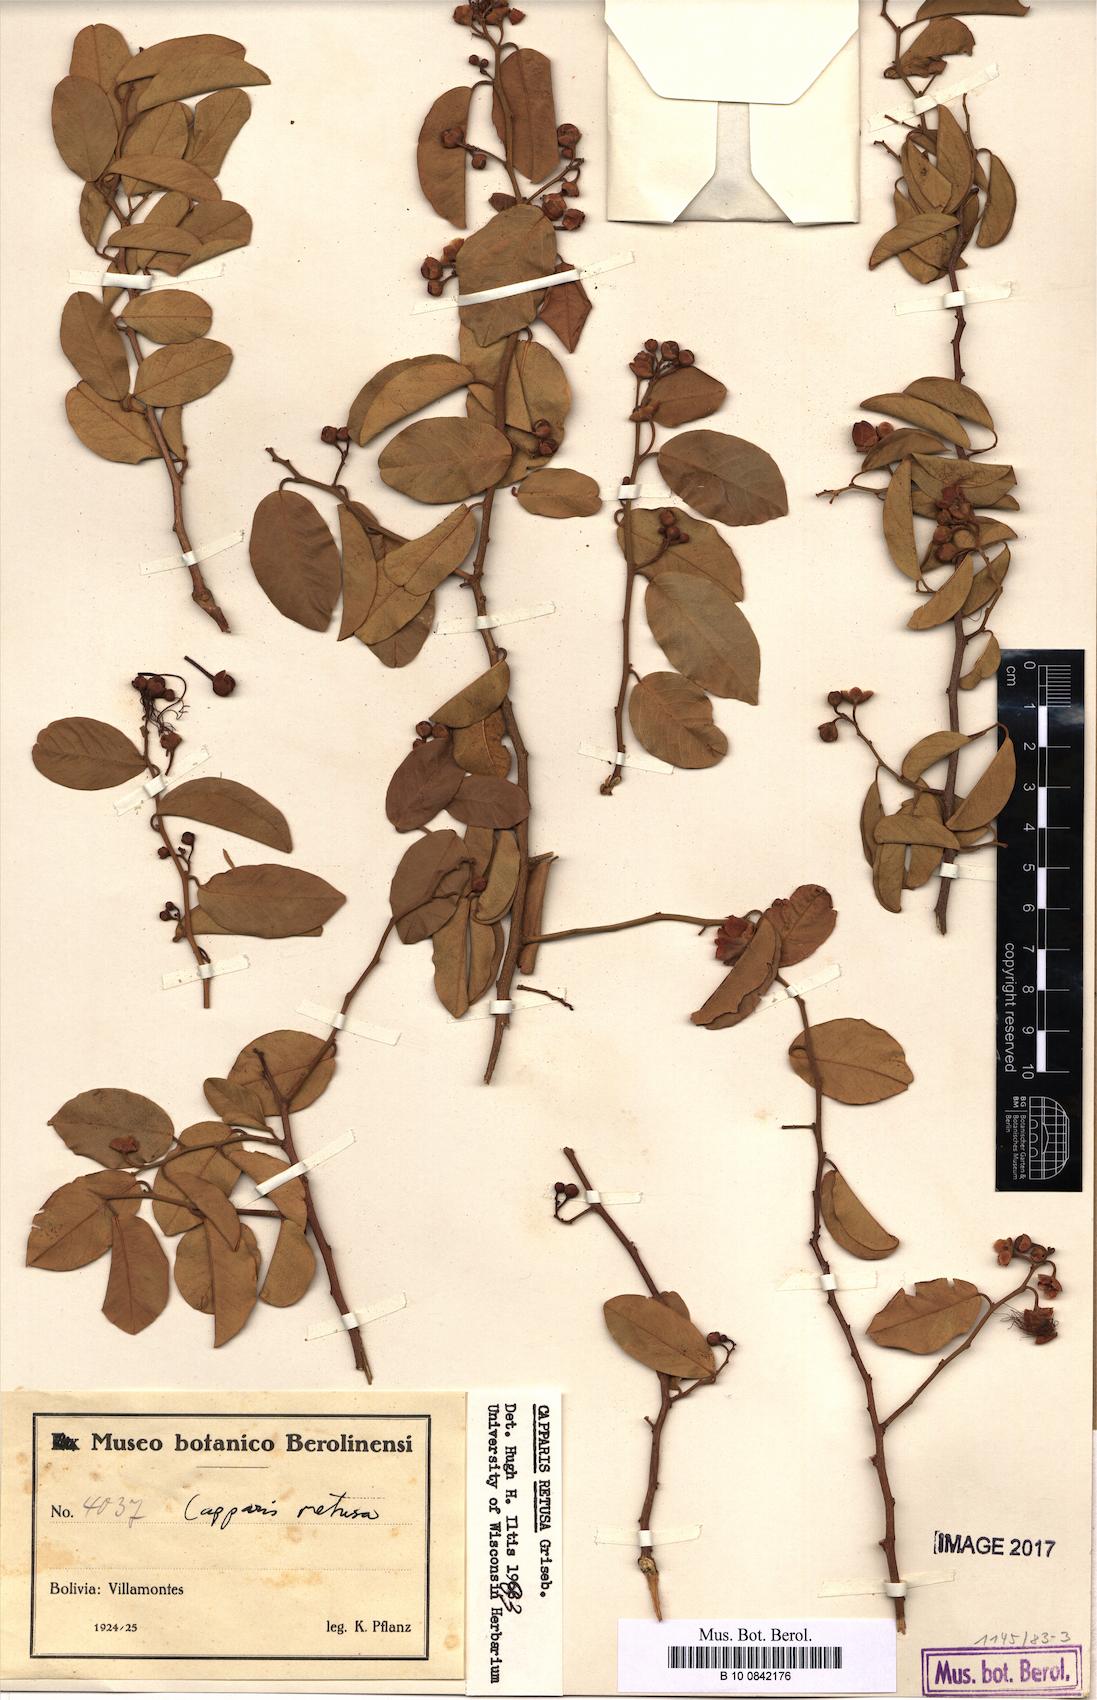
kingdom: Plantae
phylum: Tracheophyta
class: Magnoliopsida
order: Brassicales
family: Capparaceae
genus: Cynophalla
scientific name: Cynophalla retusa
